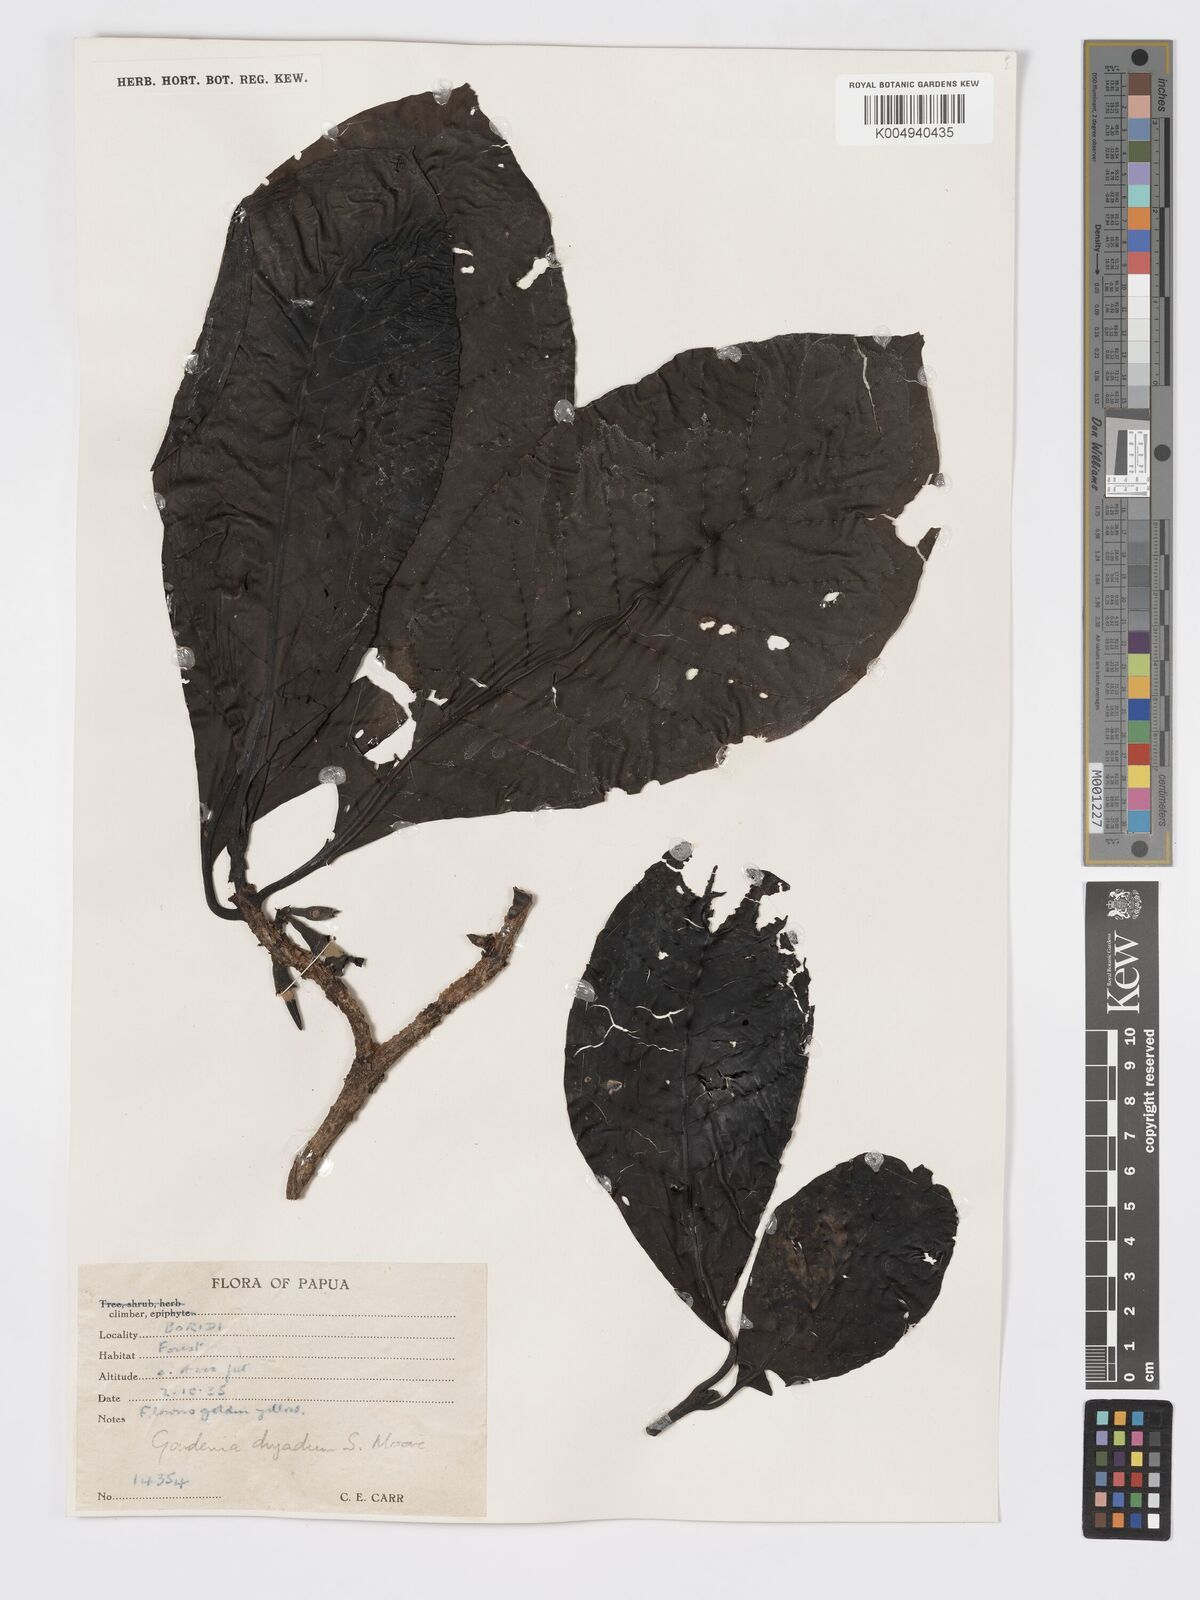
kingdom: Plantae
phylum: Tracheophyta
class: Magnoliopsida
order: Gentianales
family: Rubiaceae
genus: Atractocarpus
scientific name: Atractocarpus macarthurii
